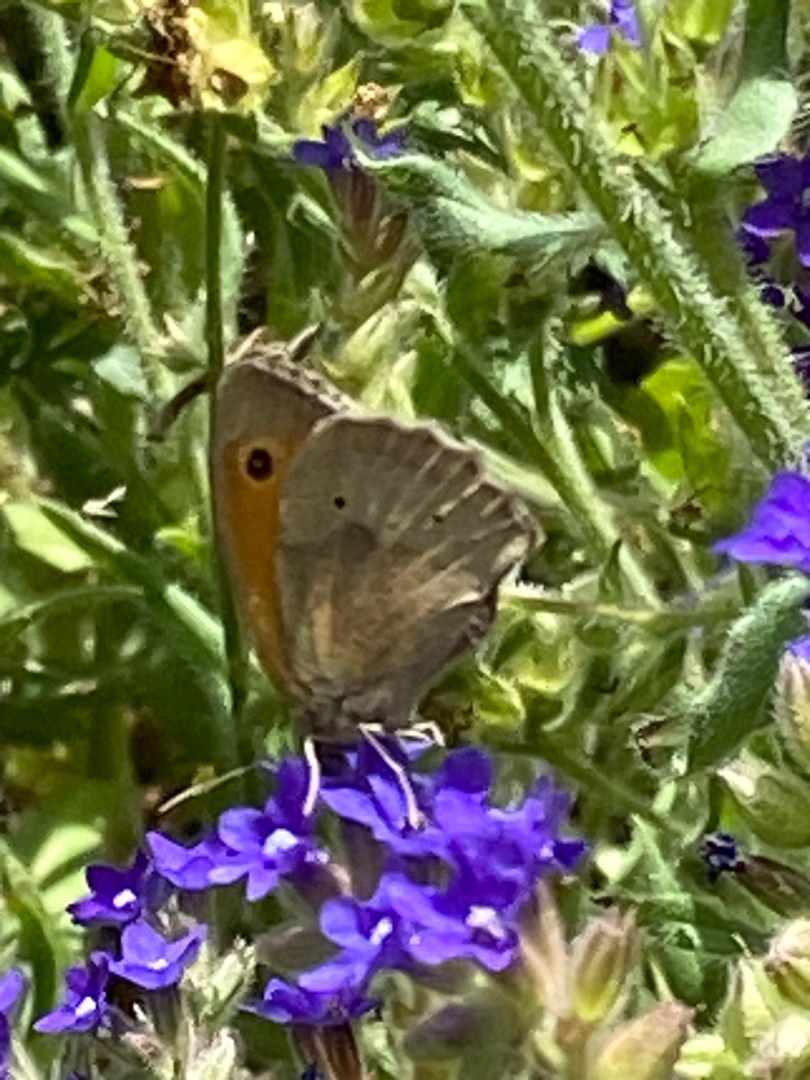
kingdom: Animalia
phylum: Arthropoda
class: Insecta
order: Lepidoptera
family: Nymphalidae
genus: Maniola
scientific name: Maniola jurtina
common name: Græsrandøje
